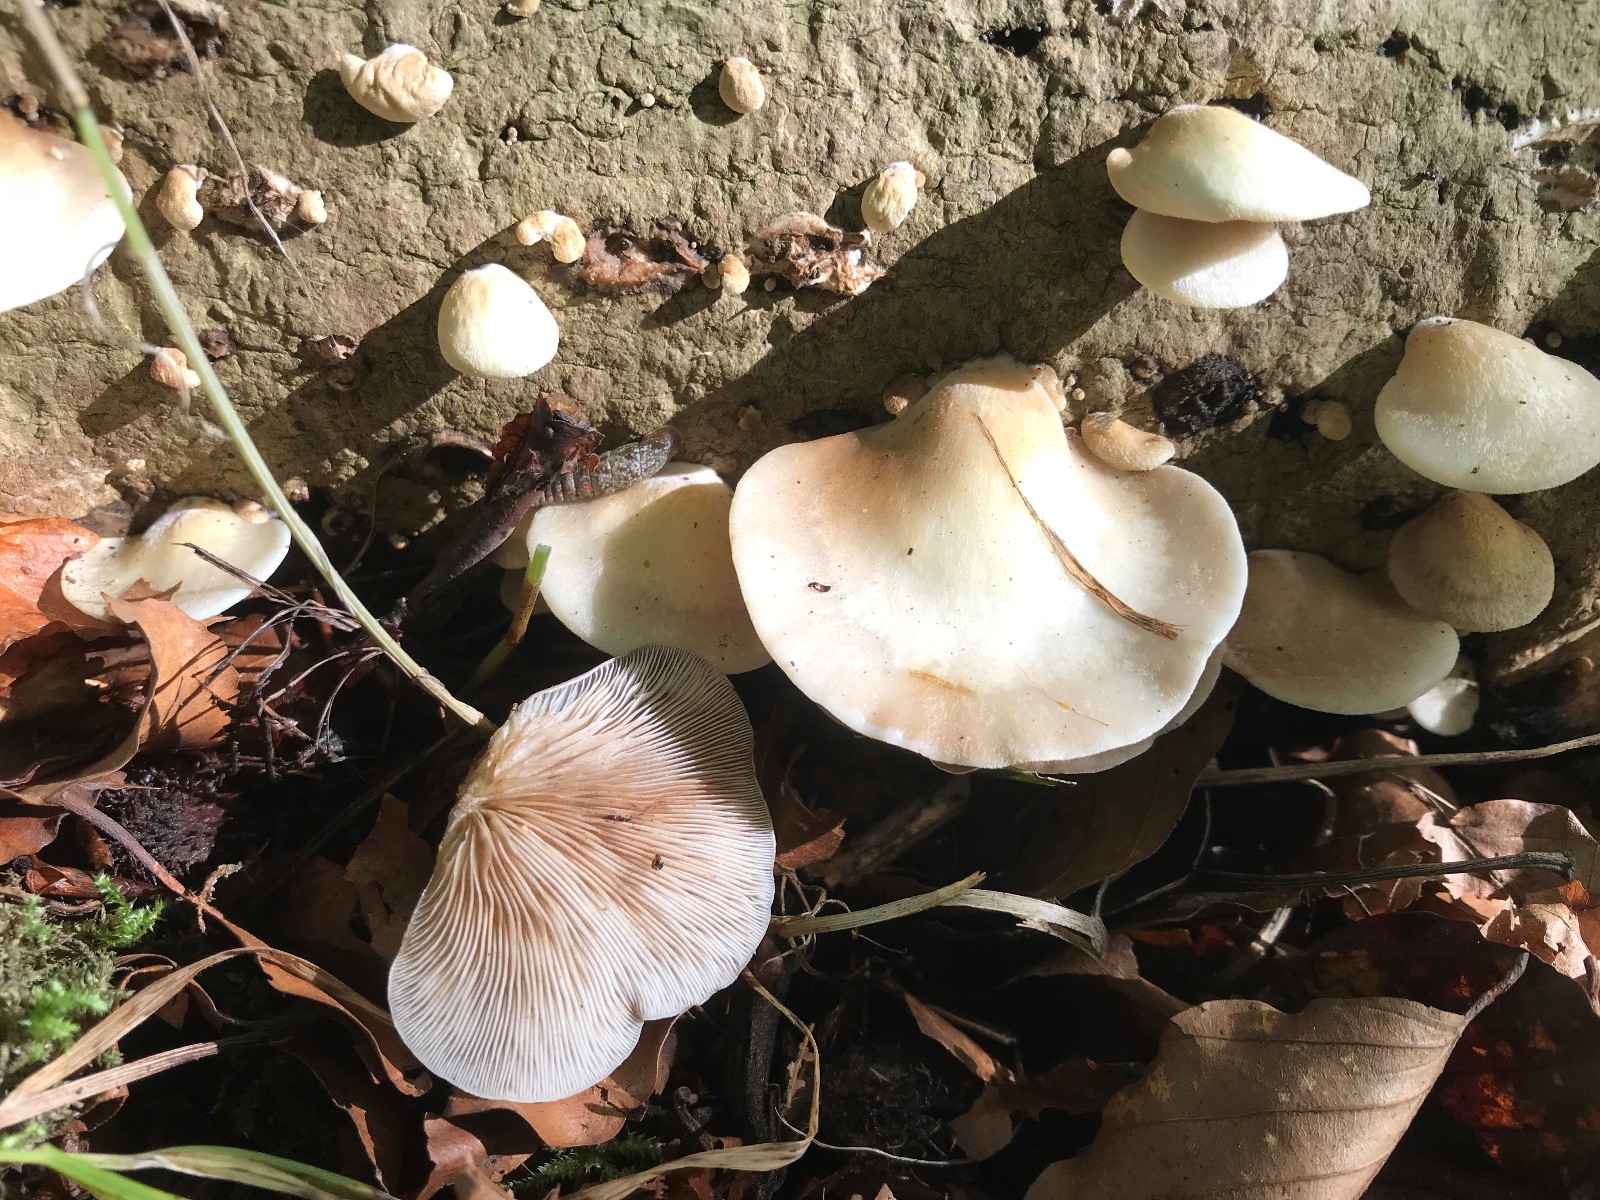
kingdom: Fungi
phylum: Basidiomycota
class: Agaricomycetes
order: Agaricales
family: Crepidotaceae
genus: Crepidotus
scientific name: Crepidotus mollis
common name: blød muslingesvamp
